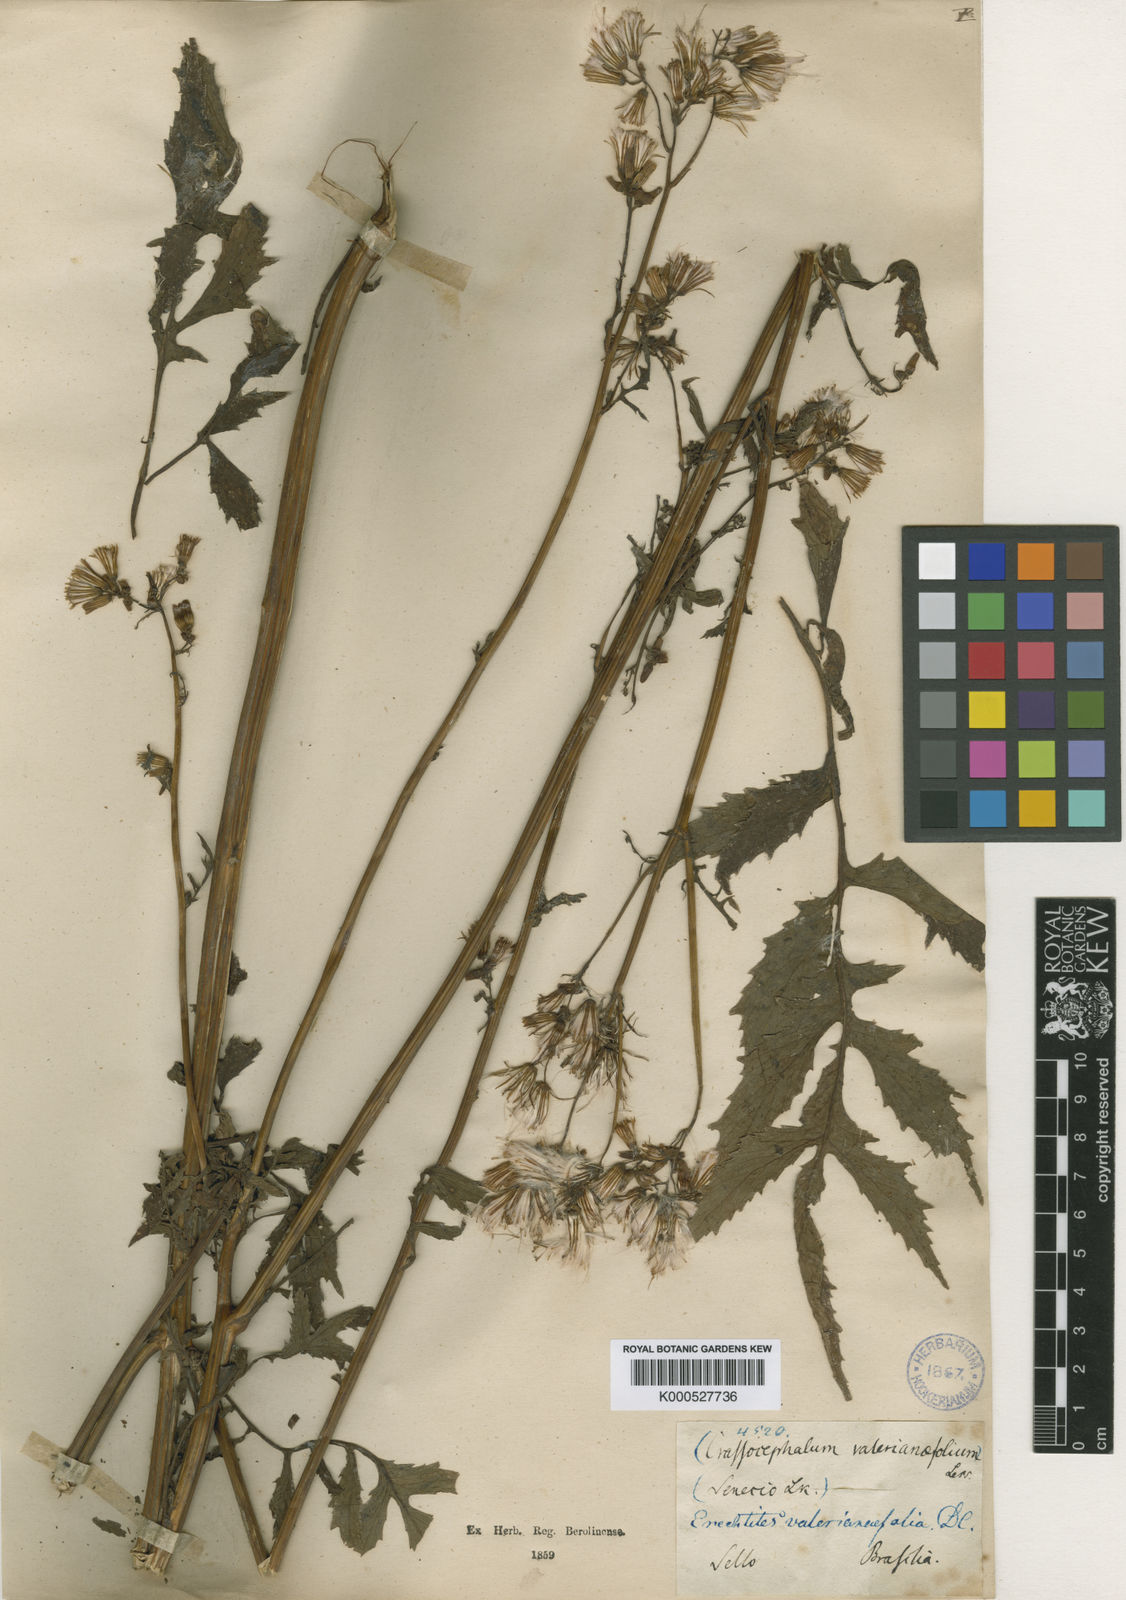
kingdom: Plantae
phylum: Tracheophyta
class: Magnoliopsida
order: Asterales
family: Asteraceae
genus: Erechtites
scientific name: Erechtites valerianifolius
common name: Tropical burnweed
